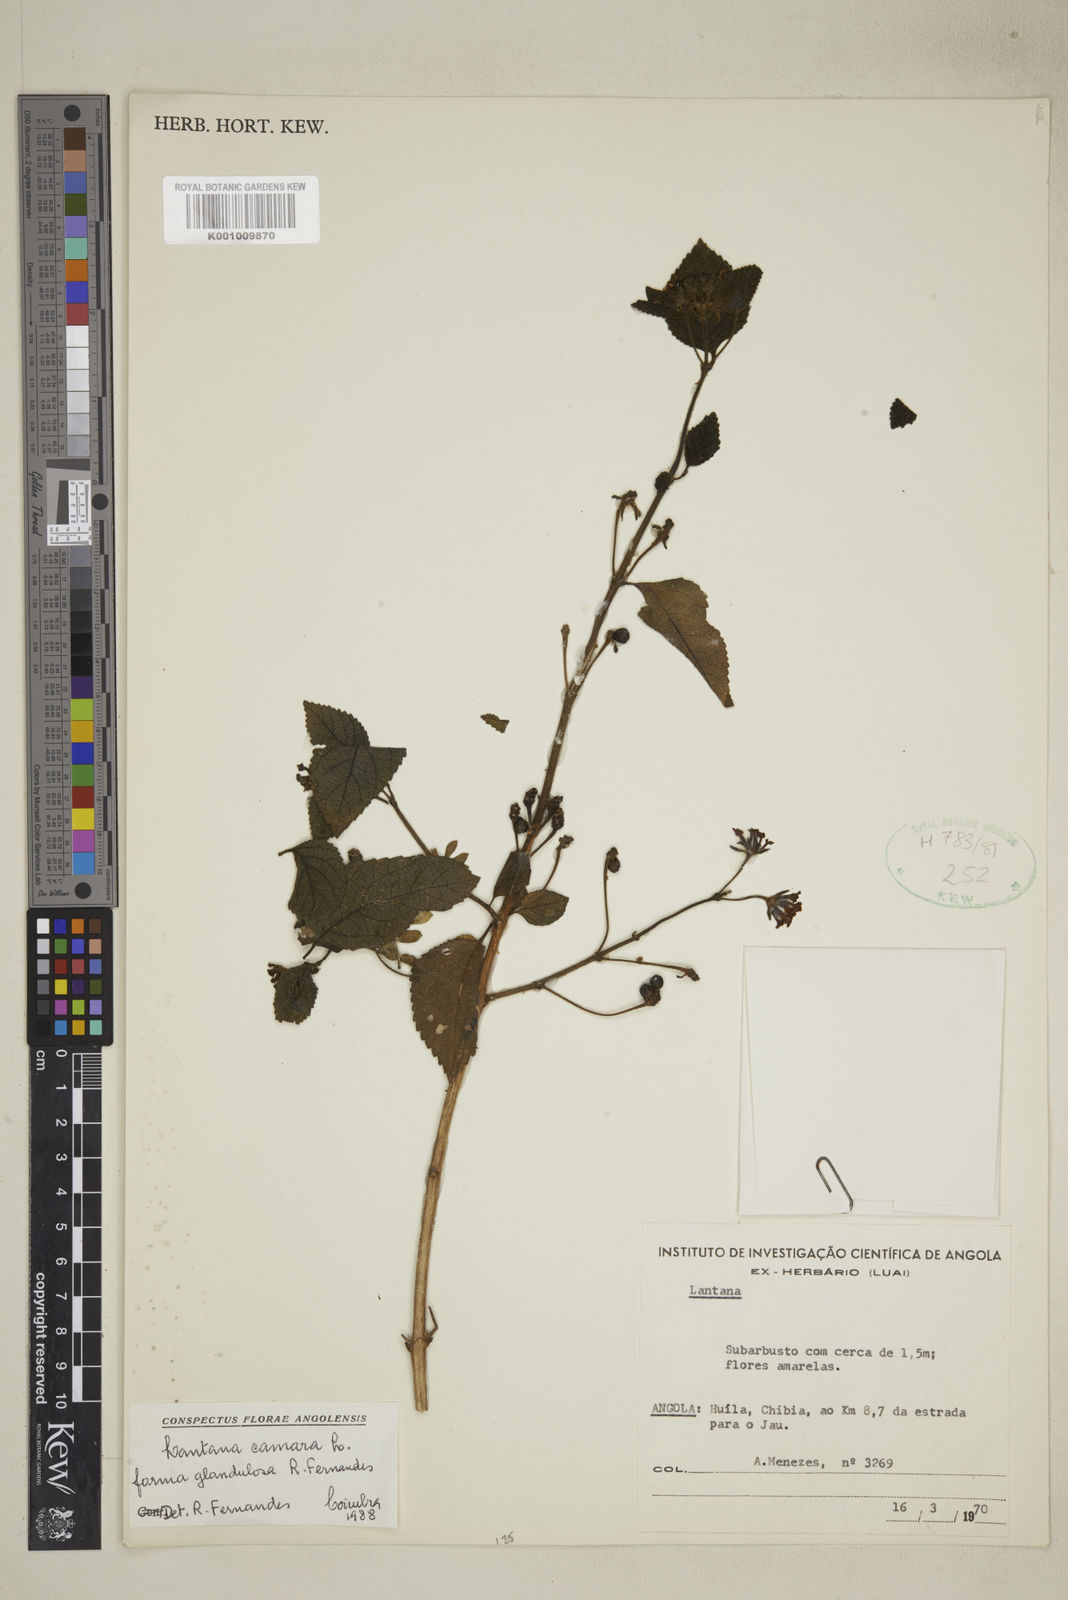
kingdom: Plantae
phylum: Tracheophyta
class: Magnoliopsida
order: Lamiales
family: Verbenaceae
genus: Lantana
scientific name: Lantana camara
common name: Lantana
